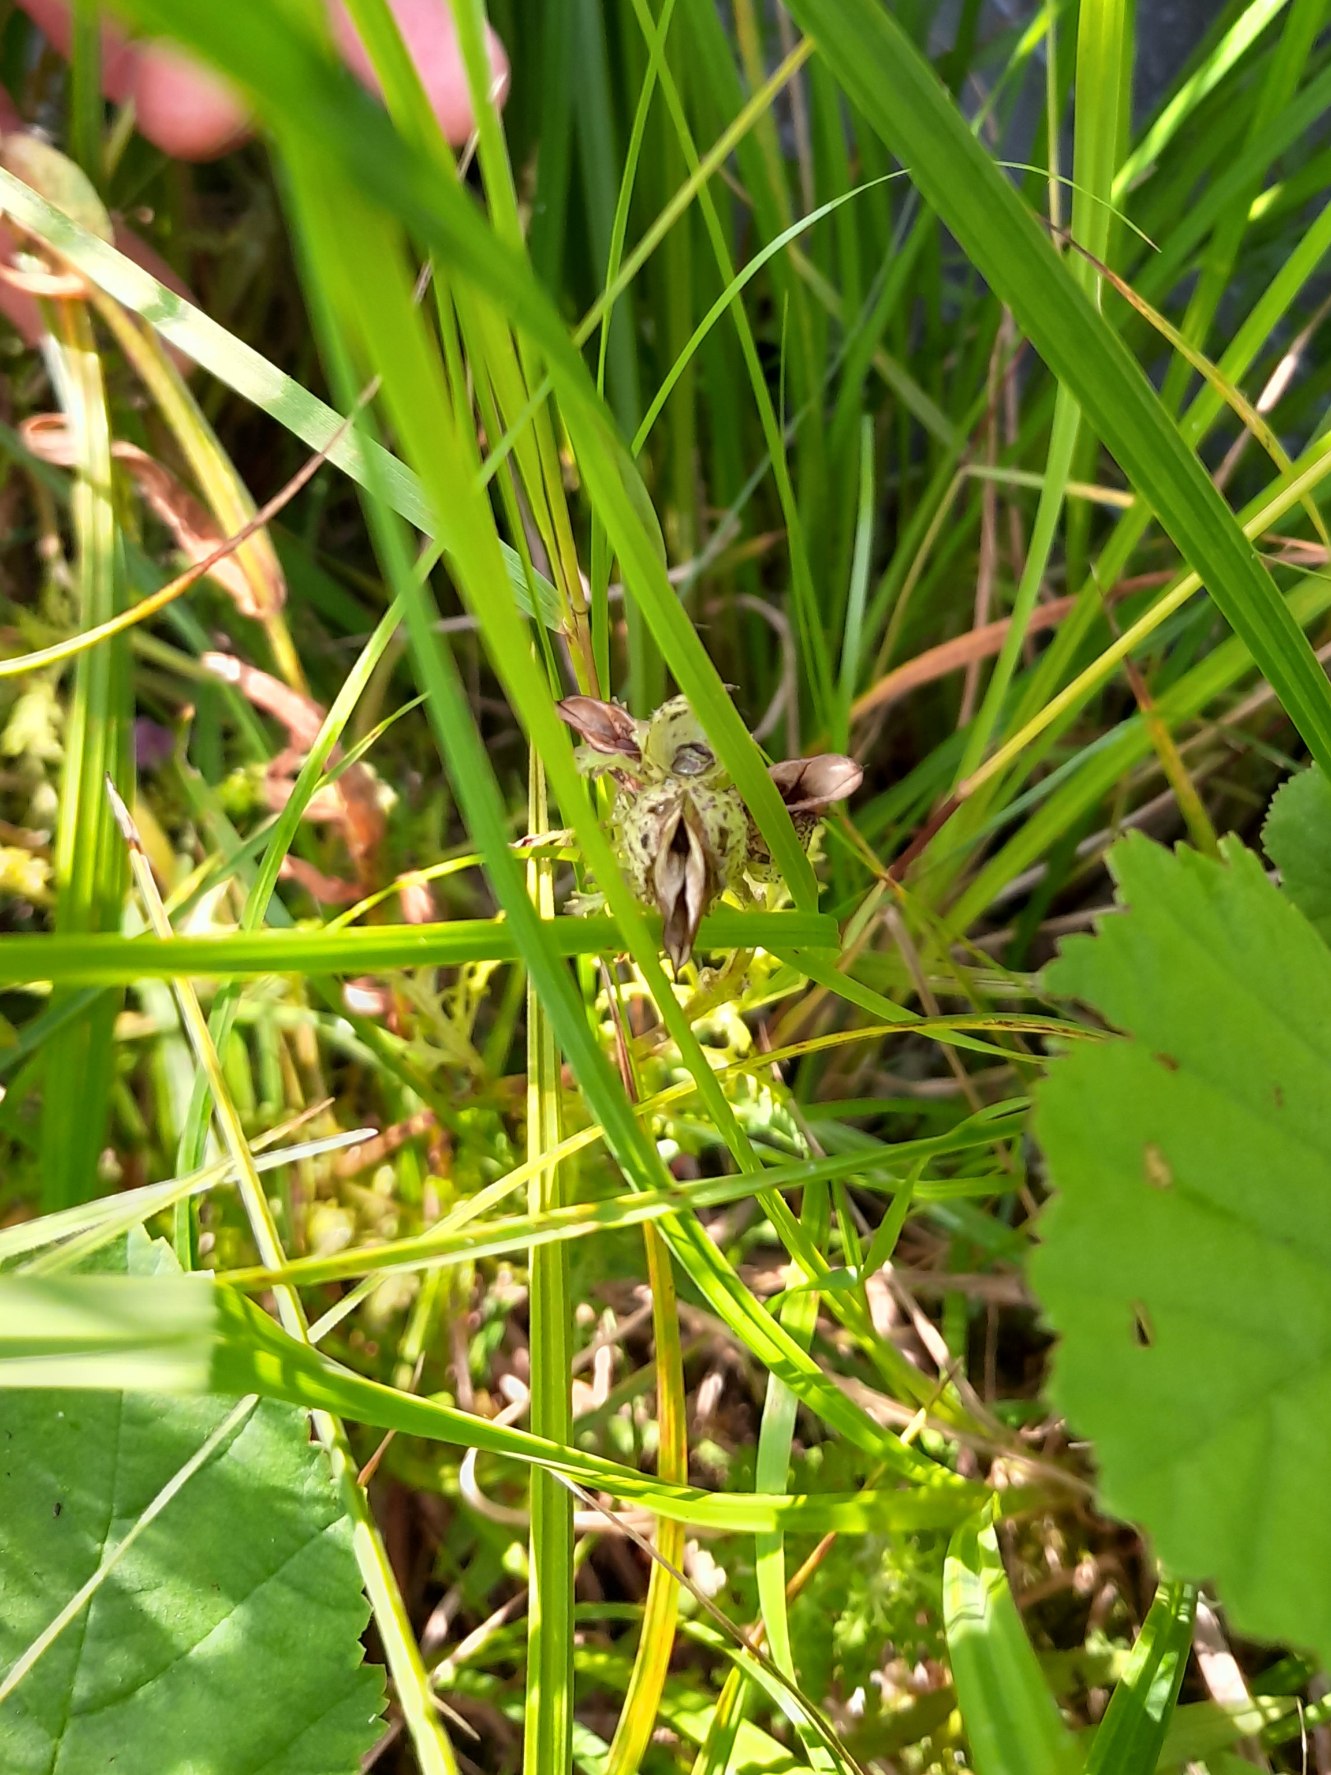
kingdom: Plantae
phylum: Tracheophyta
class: Magnoliopsida
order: Lamiales
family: Orobanchaceae
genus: Pedicularis
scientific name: Pedicularis palustris
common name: Eng-troldurt
